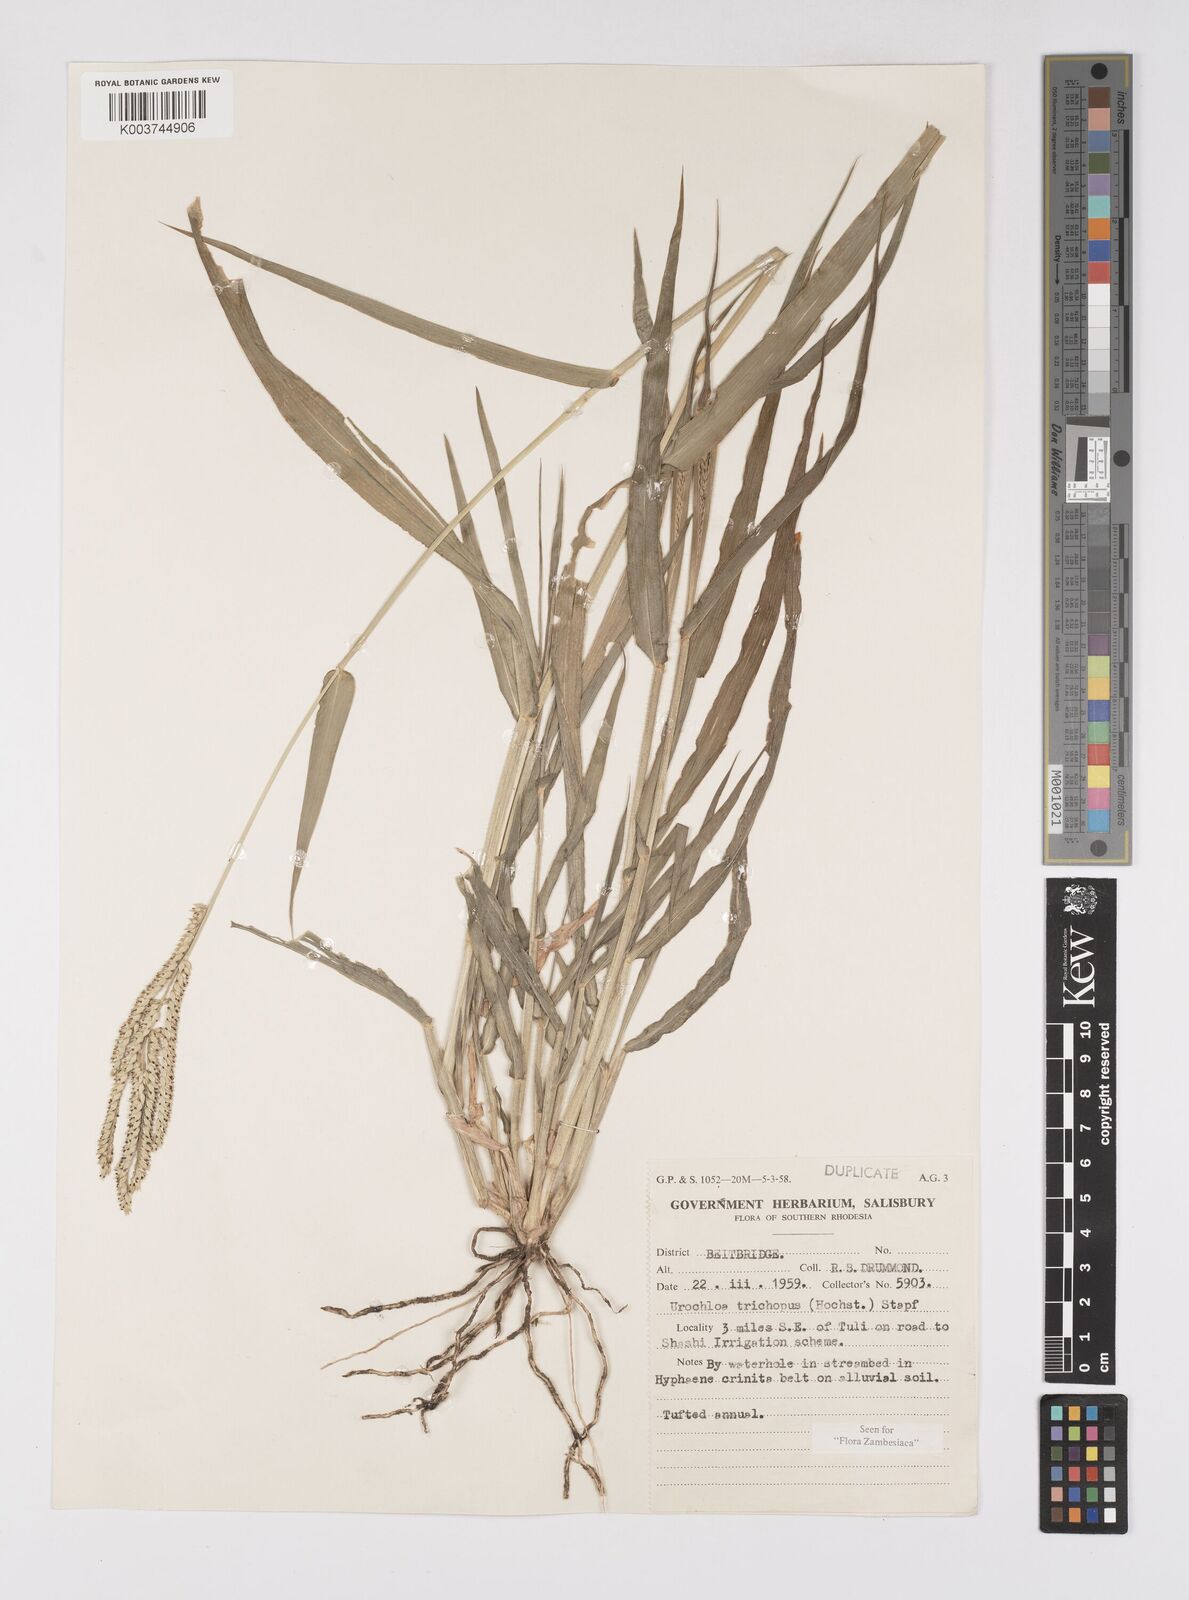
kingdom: Plantae
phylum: Tracheophyta
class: Liliopsida
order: Poales
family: Poaceae
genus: Urochloa
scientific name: Urochloa trichopus
